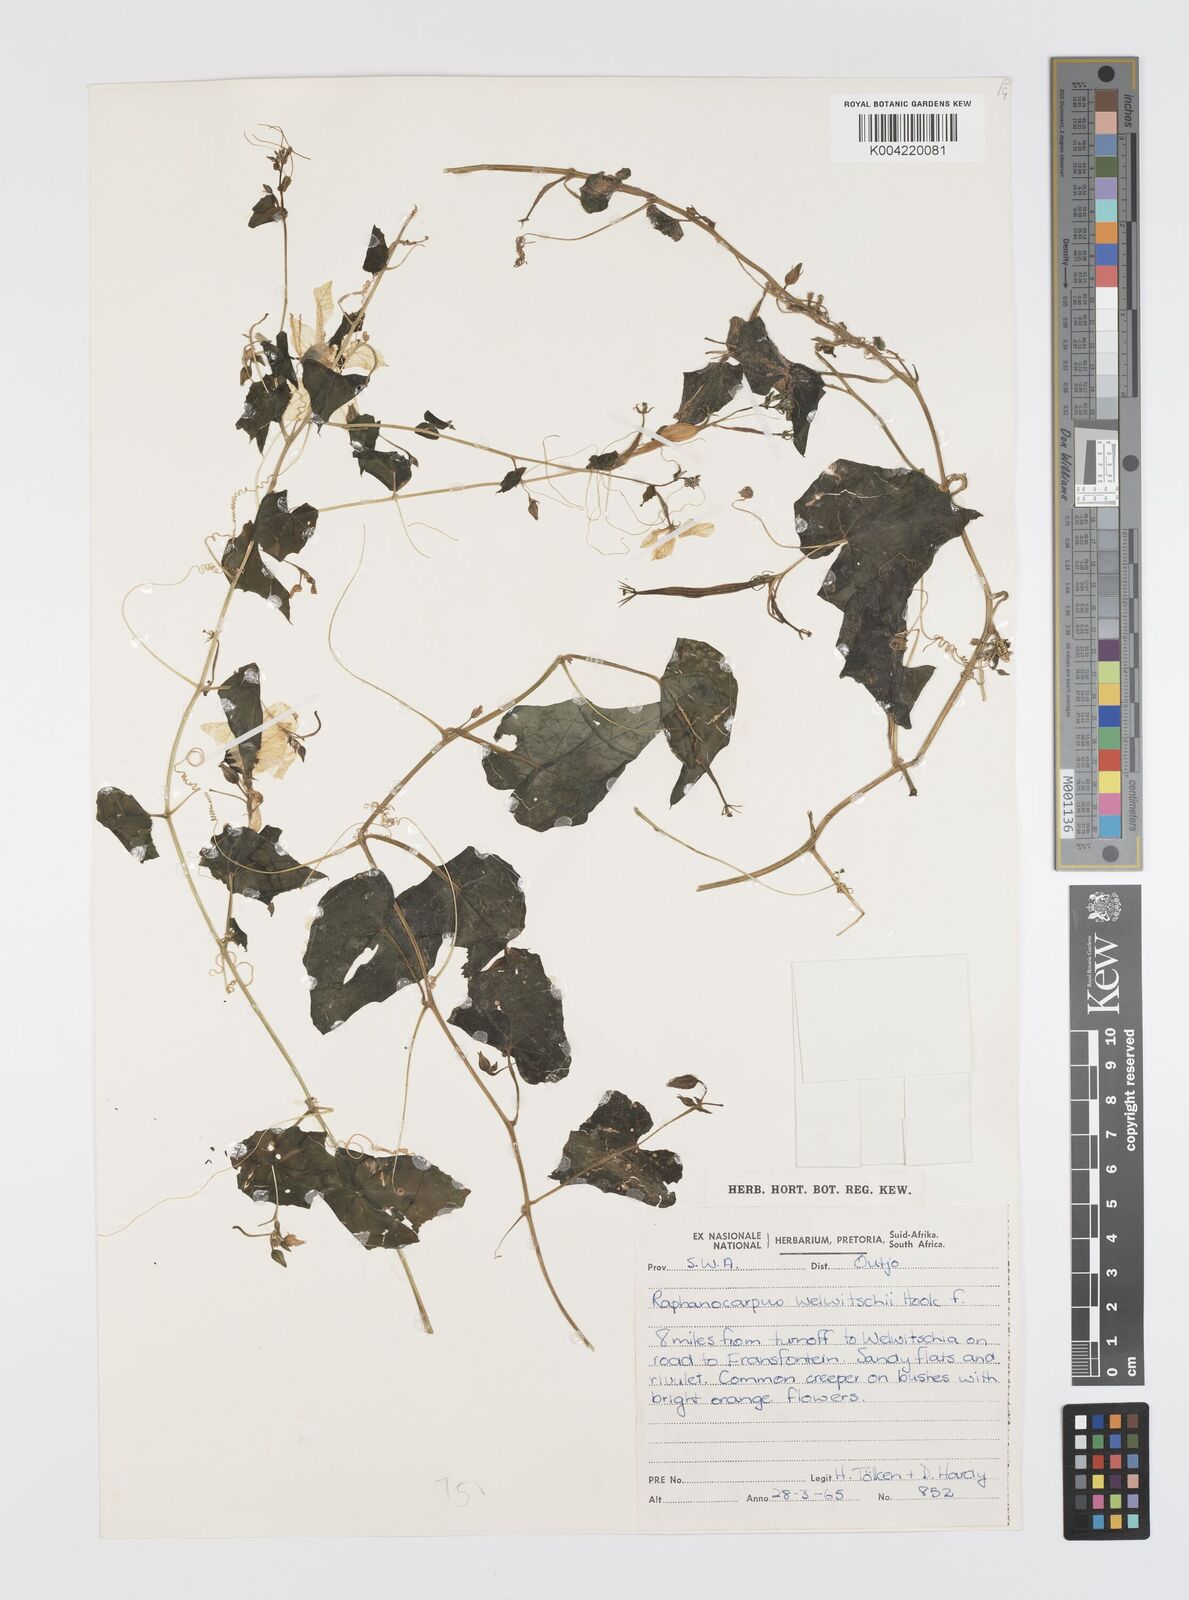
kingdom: Plantae
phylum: Tracheophyta
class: Magnoliopsida
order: Cucurbitales
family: Cucurbitaceae
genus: Momordica
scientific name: Momordica
